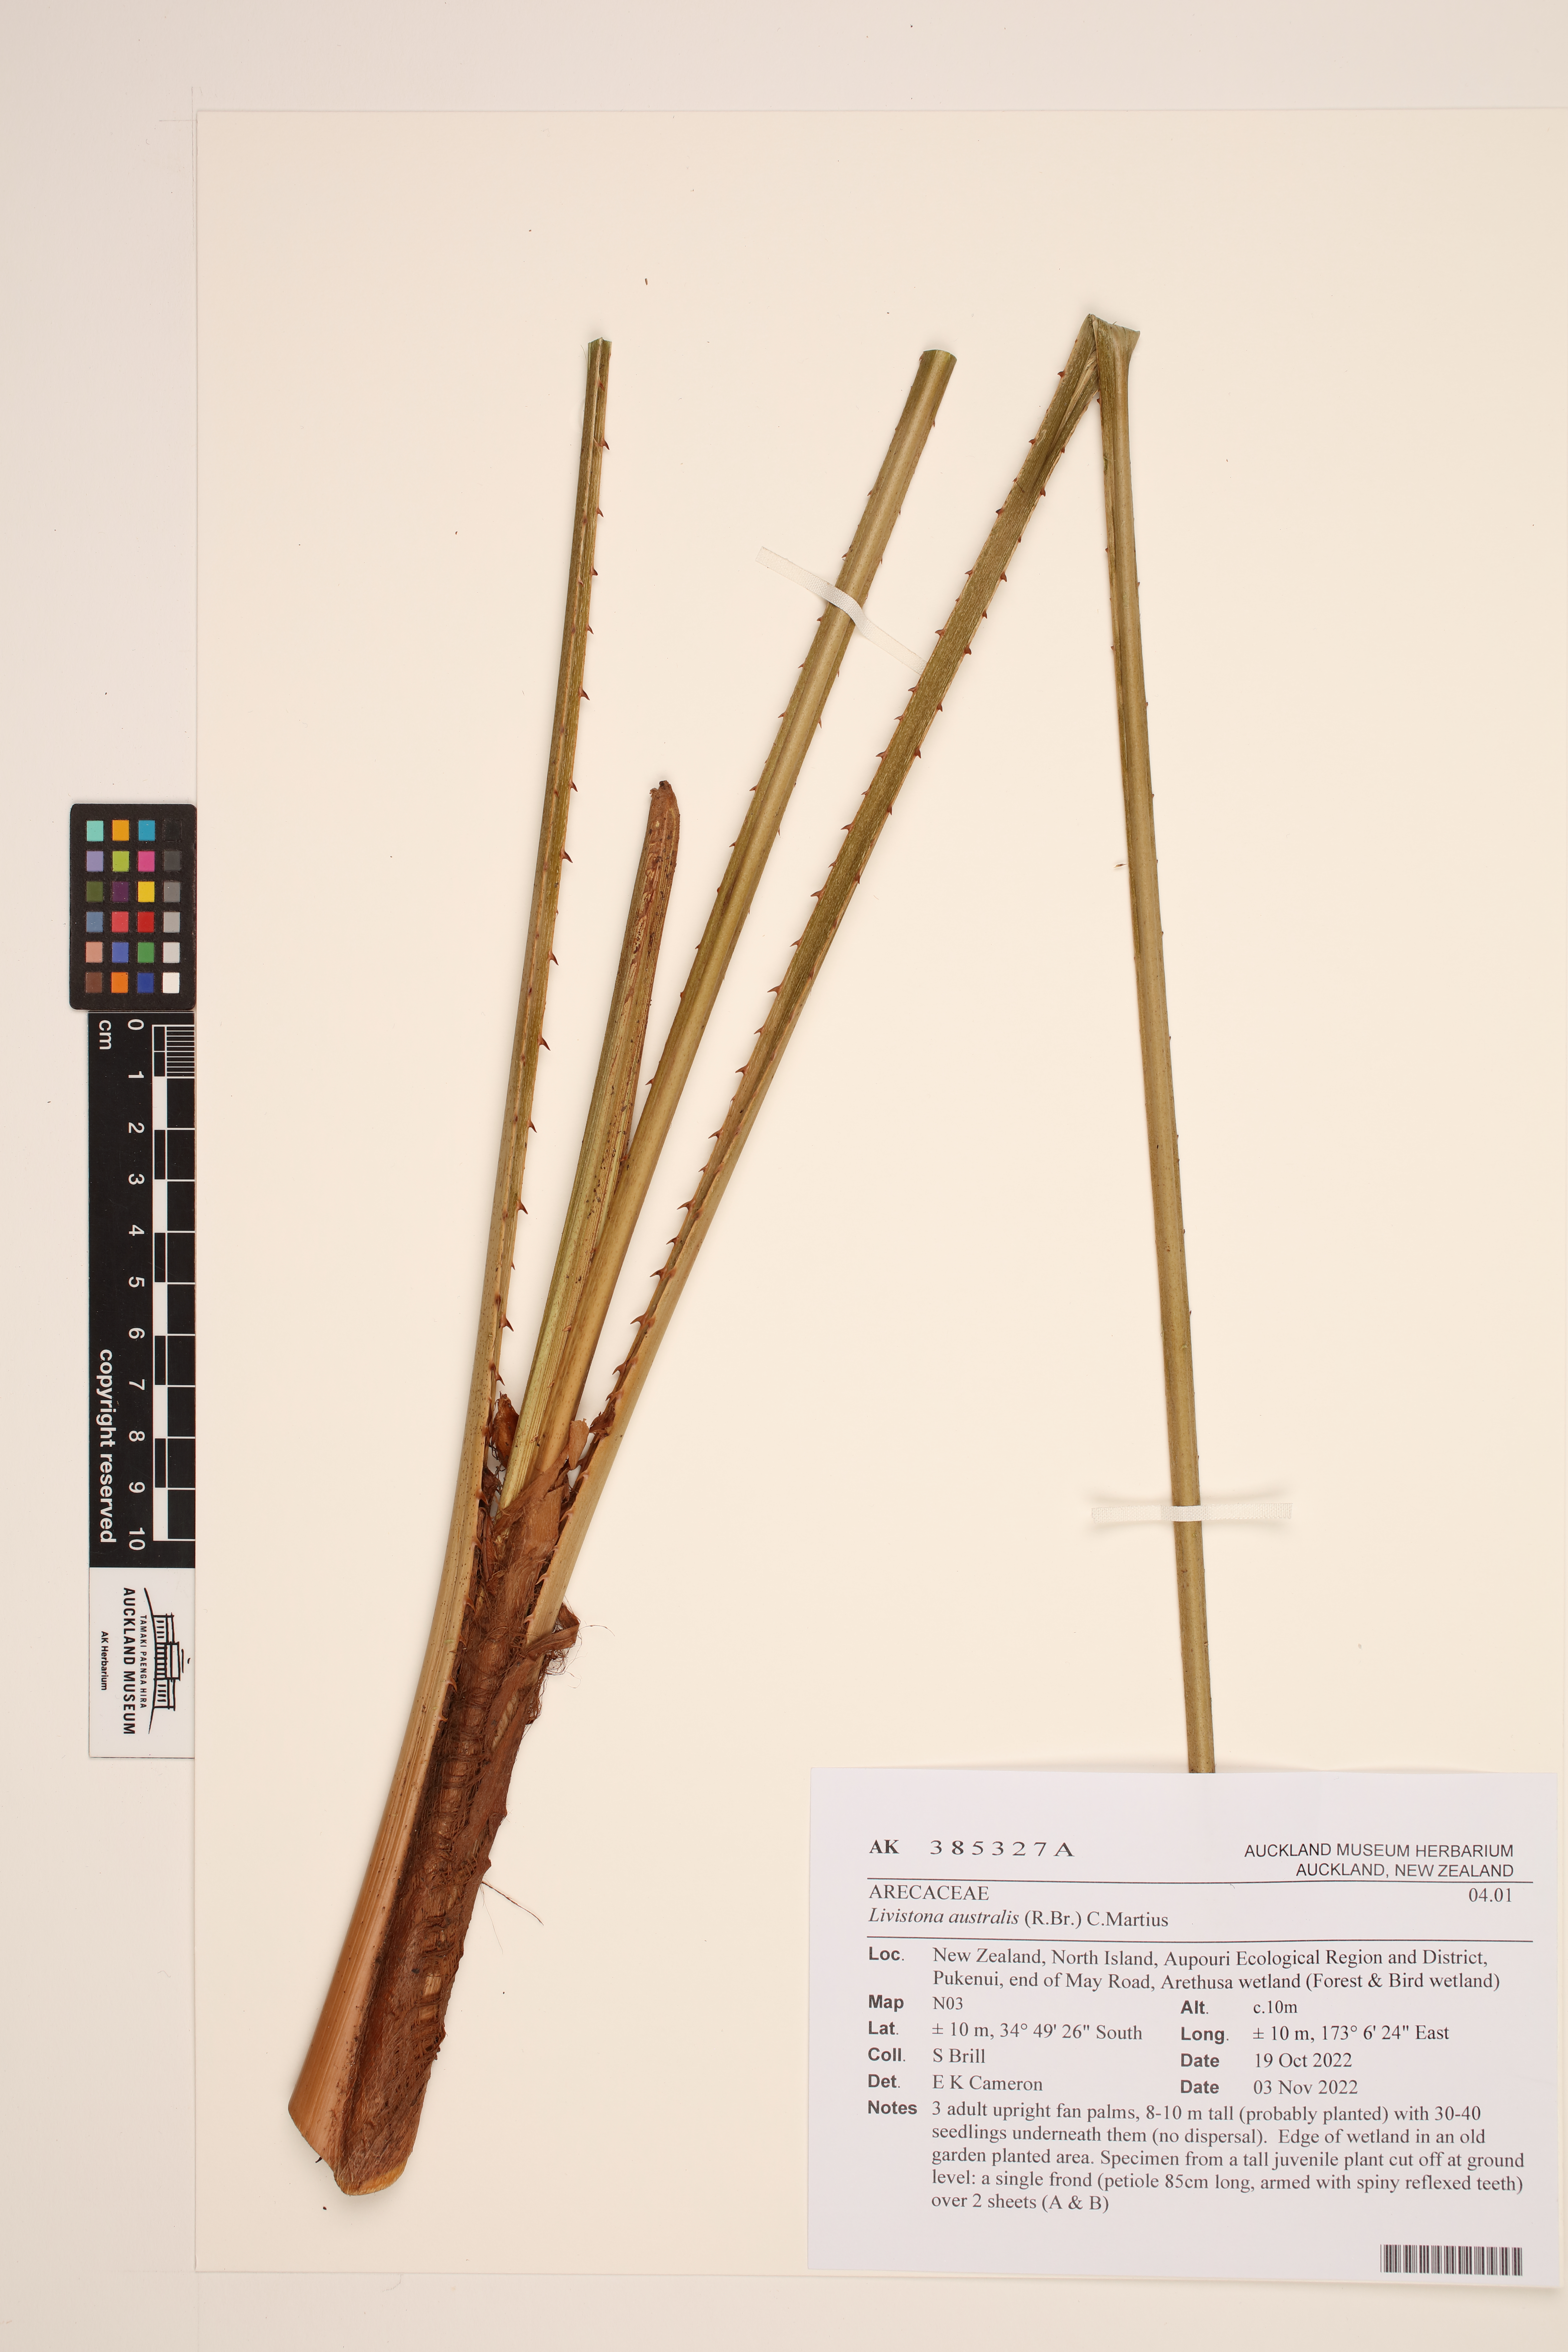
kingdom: Plantae
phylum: Tracheophyta
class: Liliopsida
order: Arecales
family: Arecaceae
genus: Livistona
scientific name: Livistona australis
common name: Cabbage fan palm
